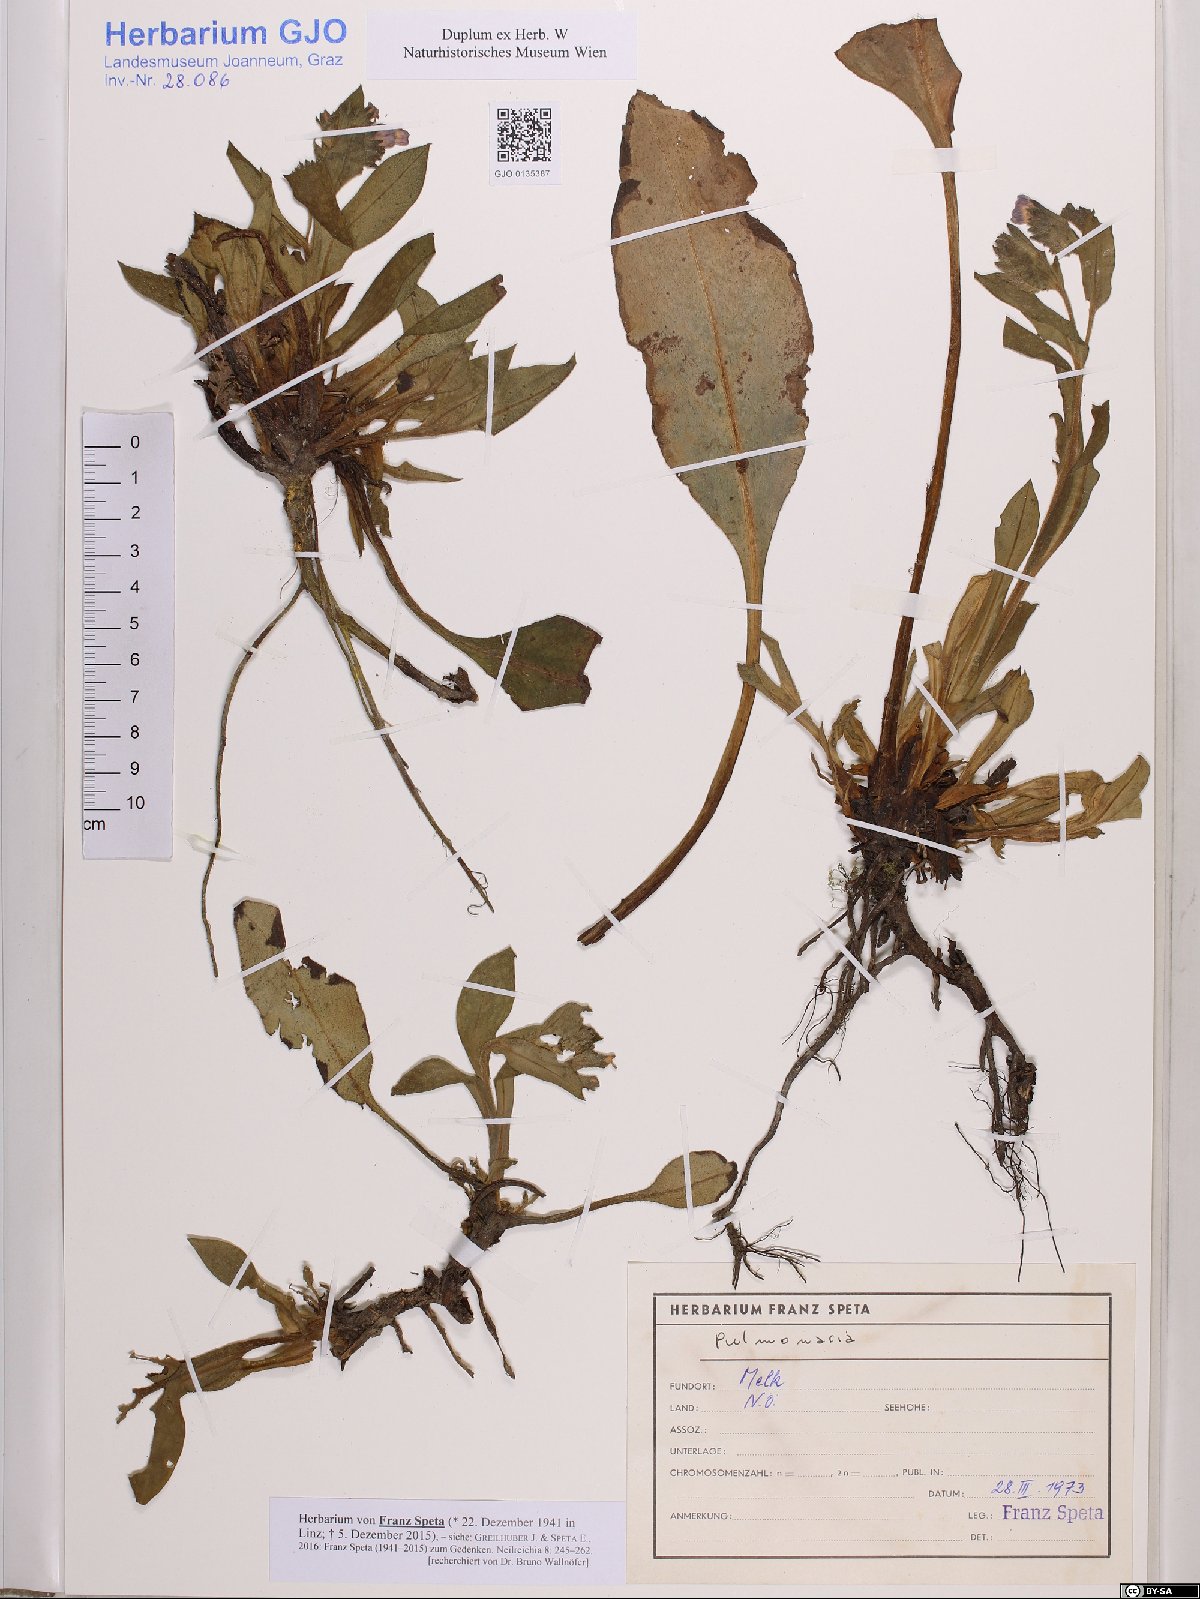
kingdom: Plantae
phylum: Tracheophyta
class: Magnoliopsida
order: Boraginales
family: Boraginaceae
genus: Pulmonaria
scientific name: Pulmonaria
